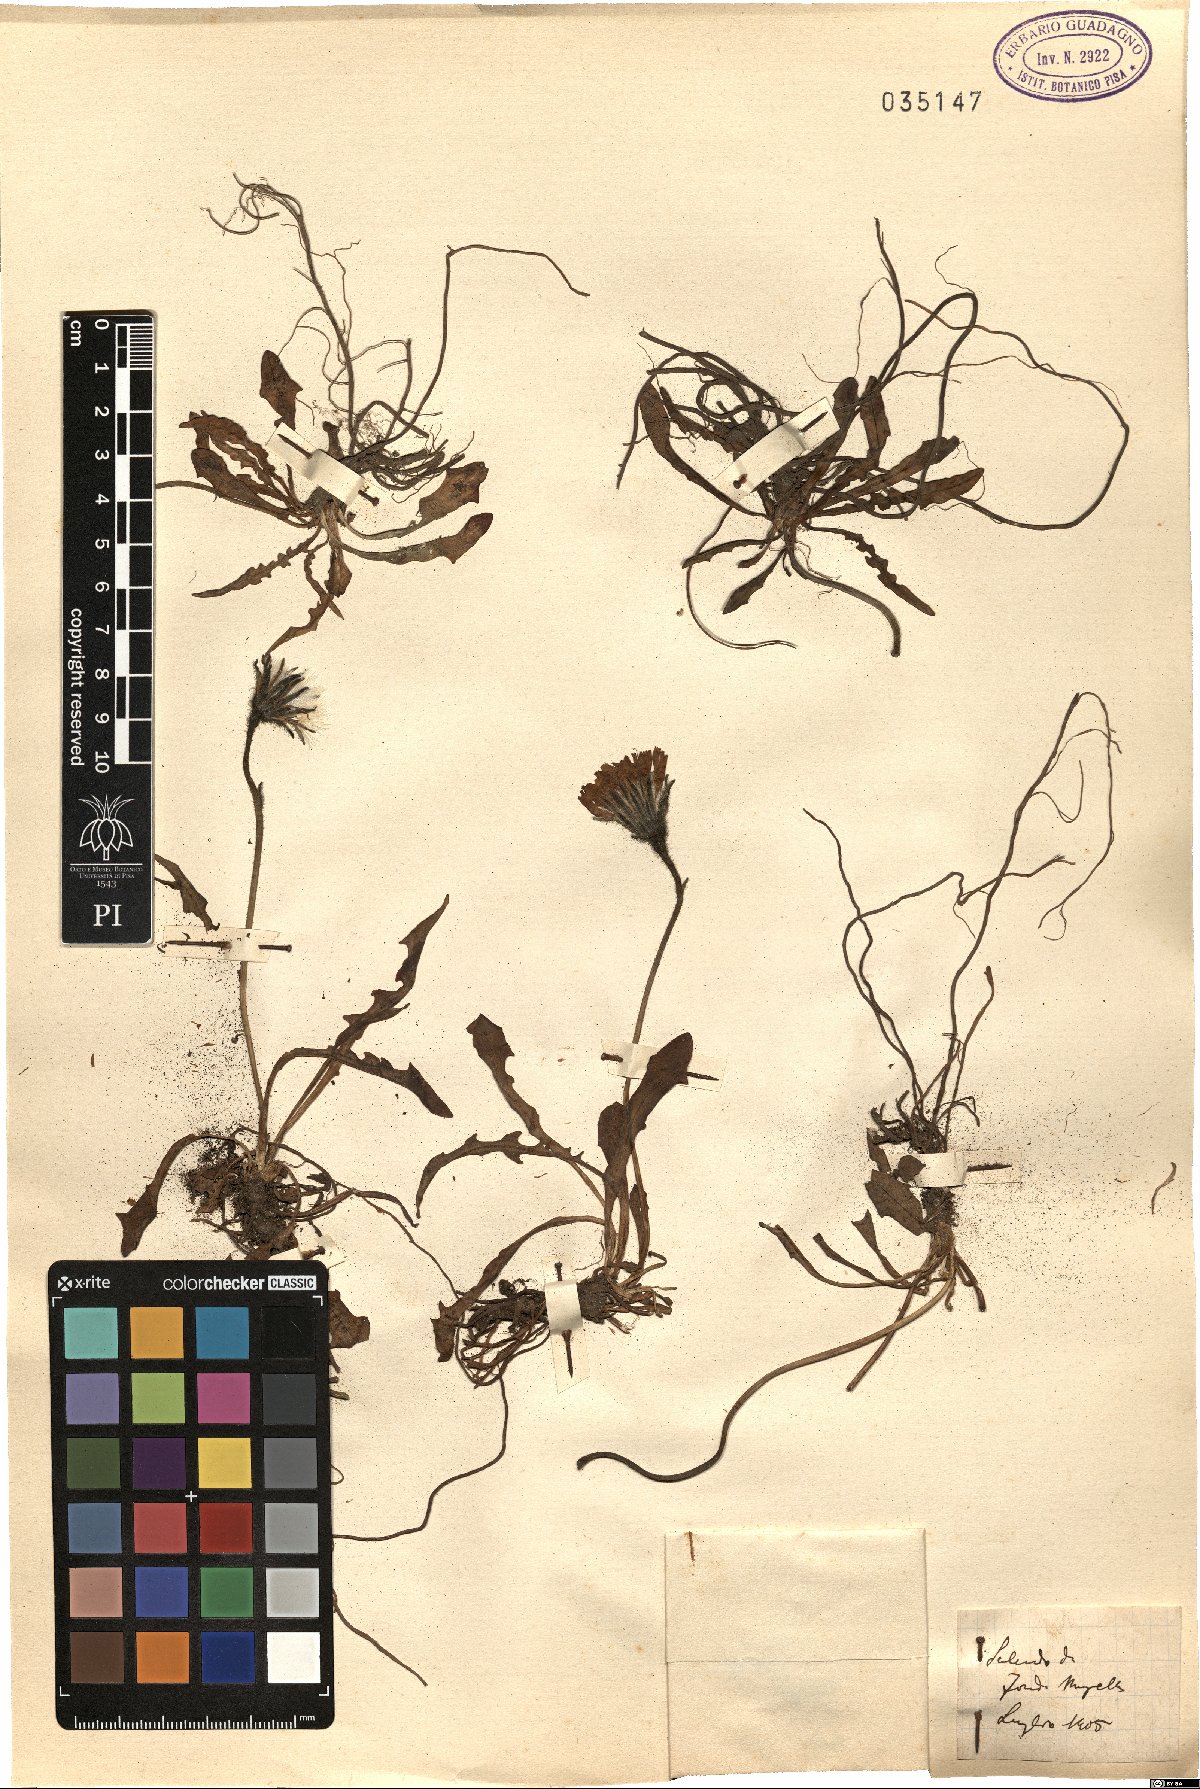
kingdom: Plantae
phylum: Tracheophyta
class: Magnoliopsida
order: Asterales
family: Asteraceae
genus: Leontodon
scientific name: Leontodon
